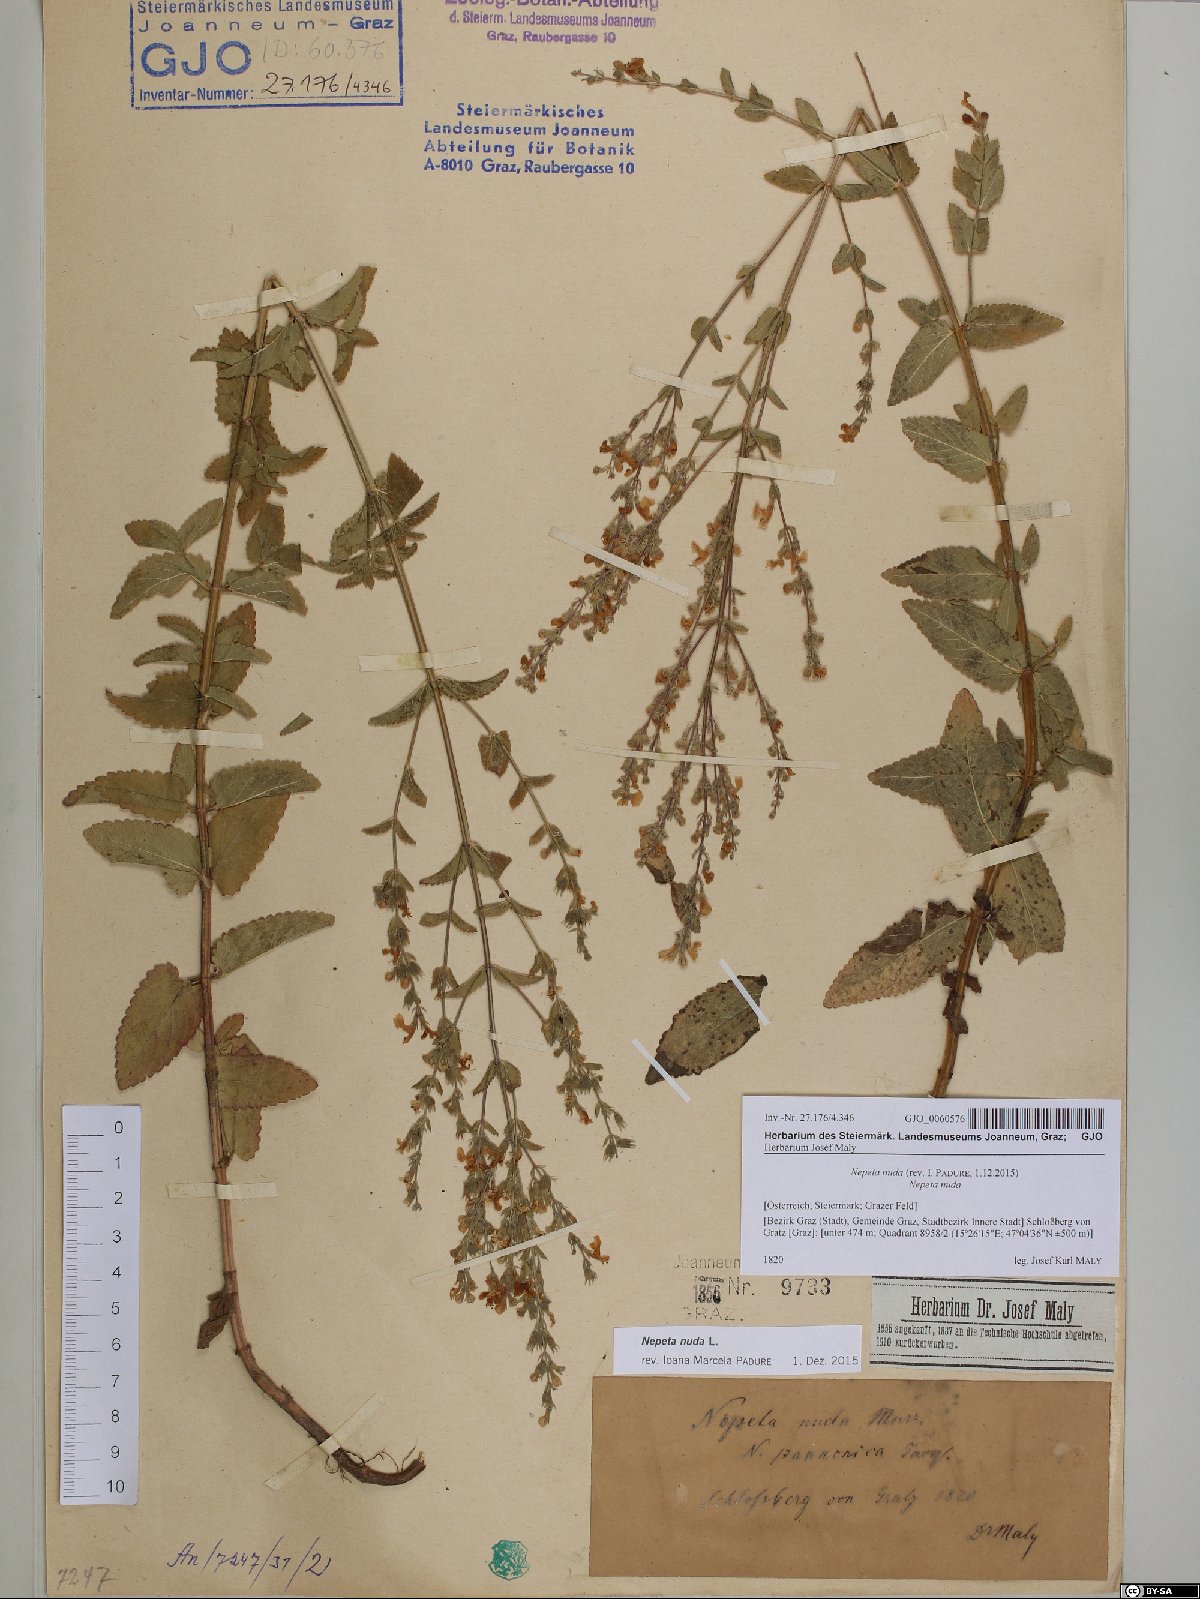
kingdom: Plantae
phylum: Tracheophyta
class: Magnoliopsida
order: Lamiales
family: Lamiaceae
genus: Nepeta
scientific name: Nepeta nuda
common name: Hairless catmint
